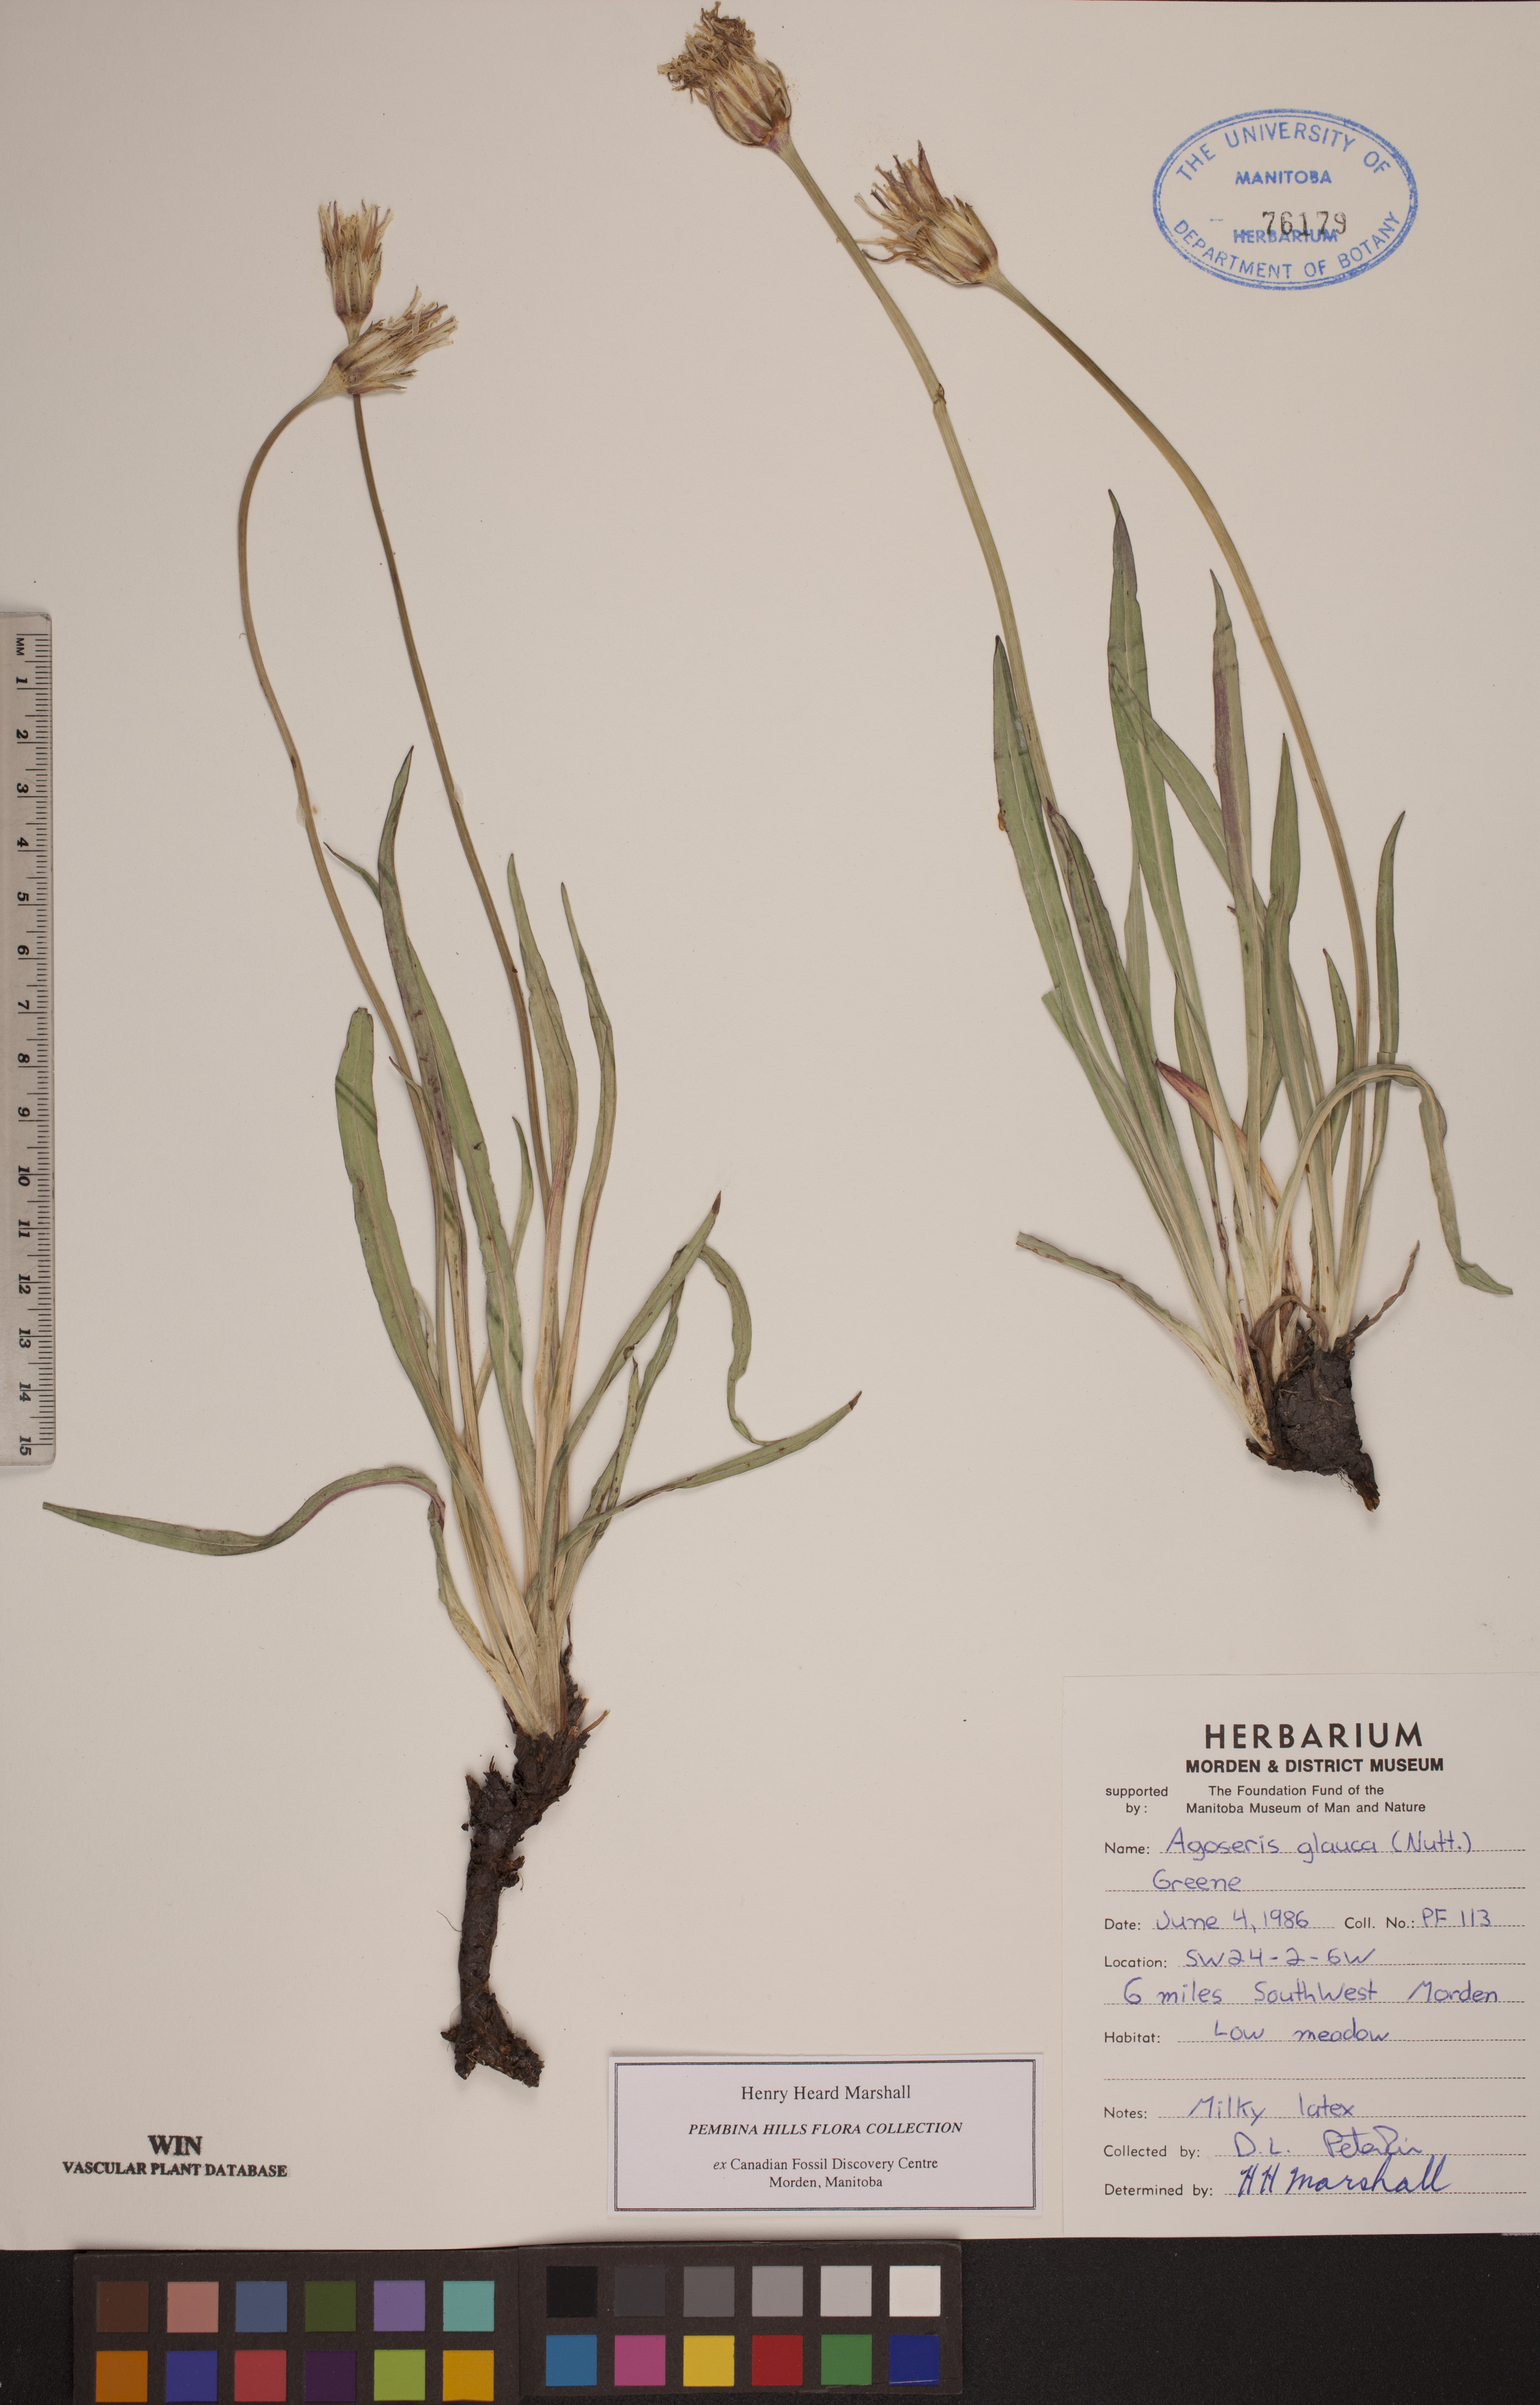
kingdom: Plantae
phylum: Tracheophyta
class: Magnoliopsida
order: Asterales
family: Asteraceae
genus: Agoseris
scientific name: Agoseris glauca
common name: Prairie agoseris
